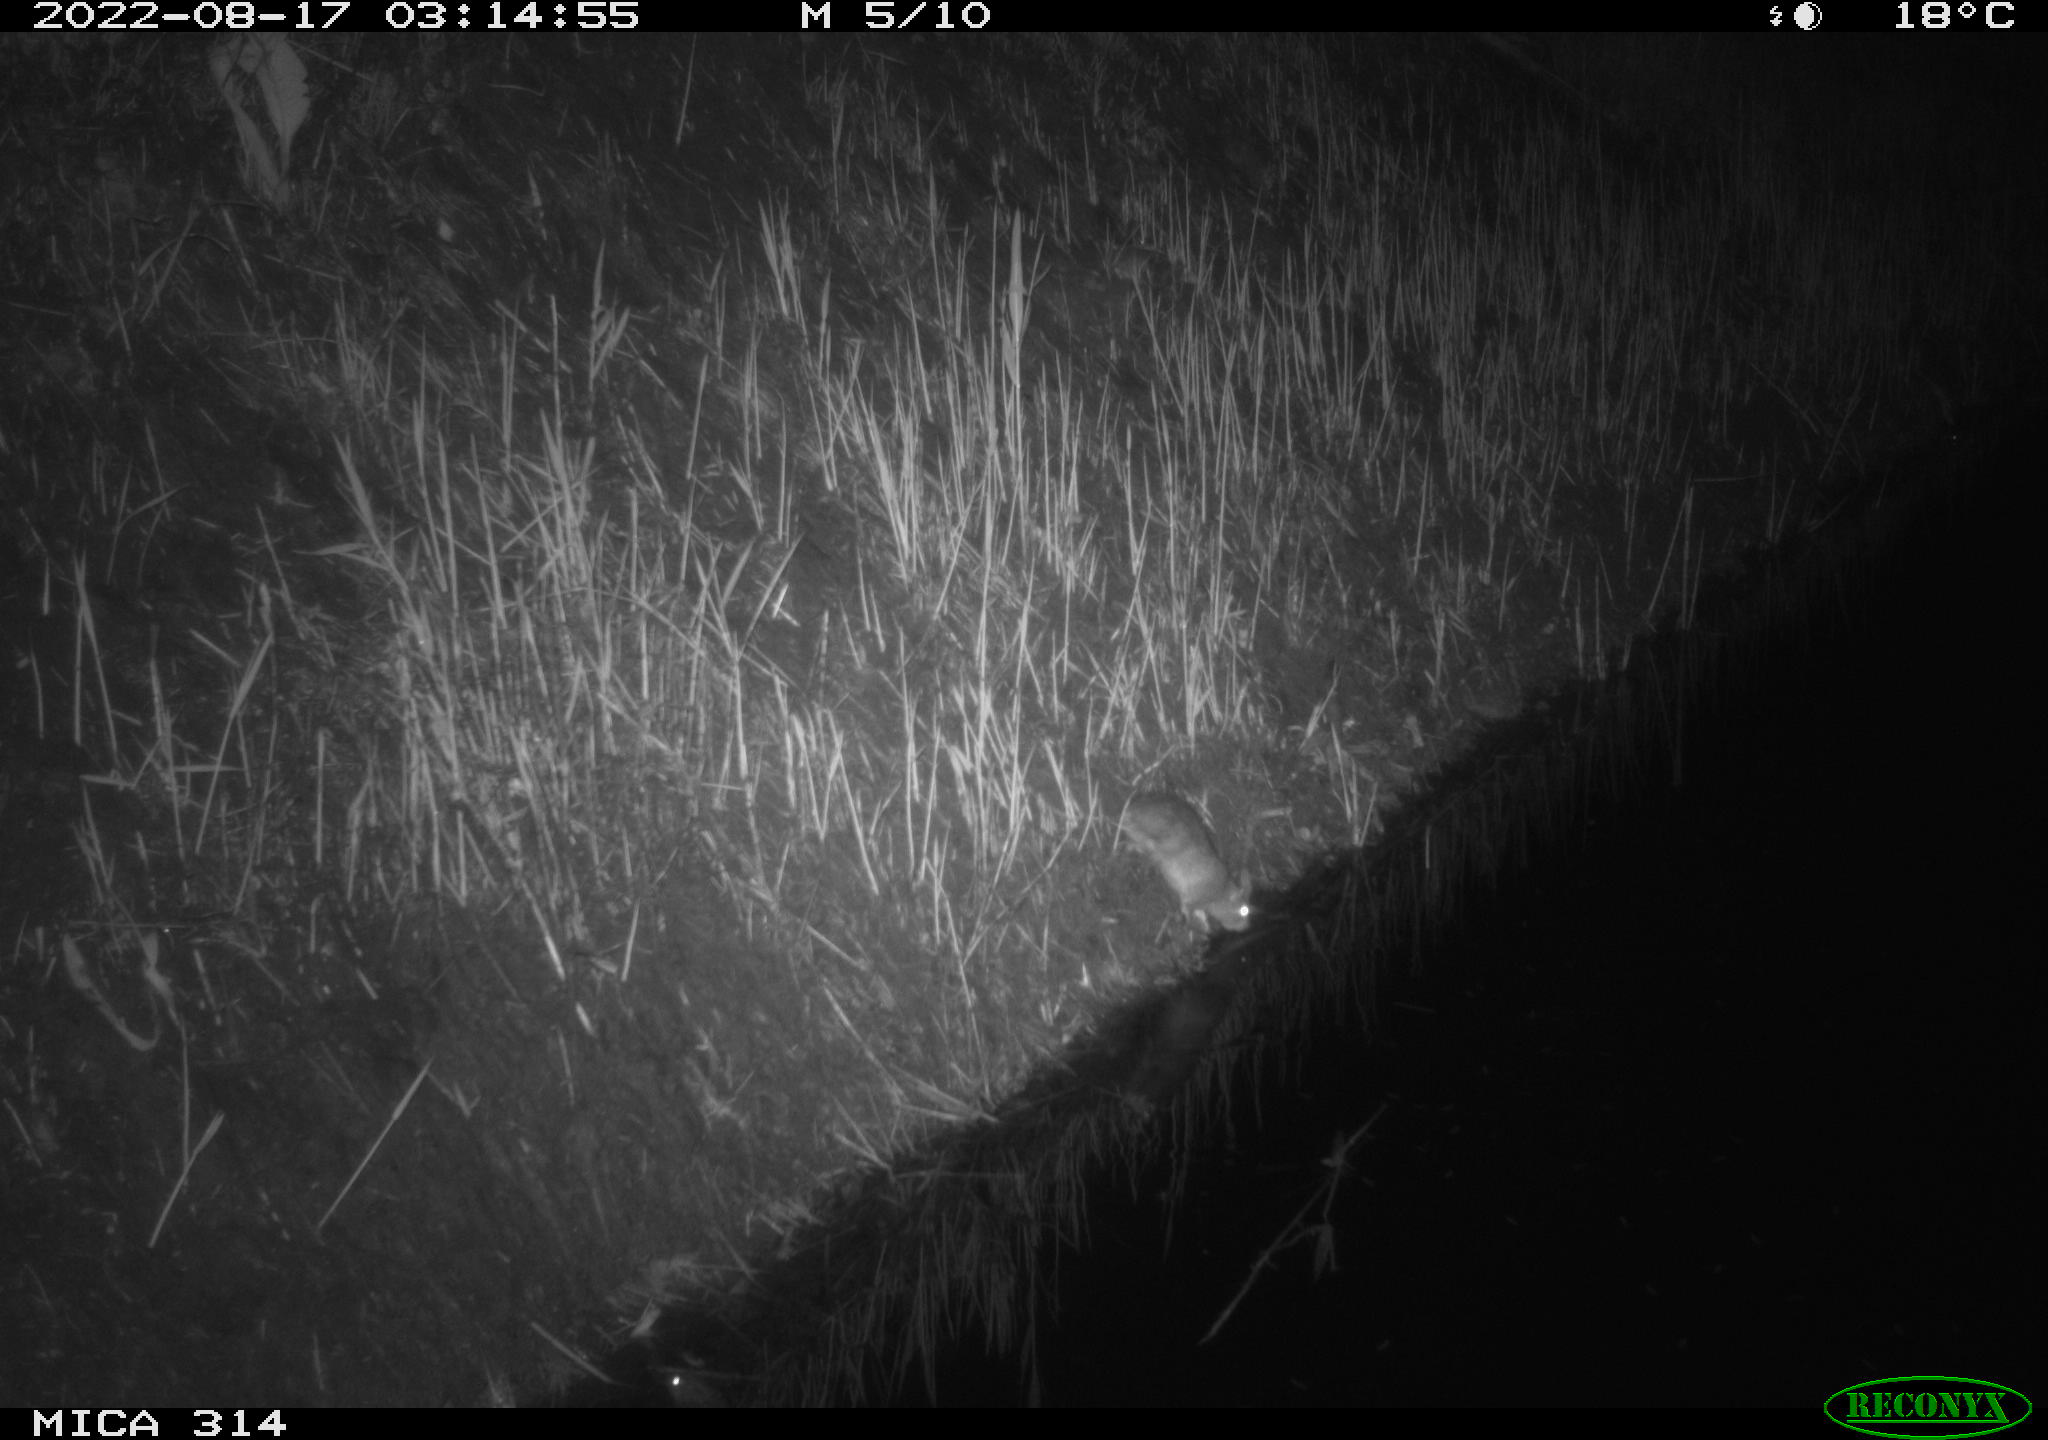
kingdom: Animalia
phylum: Chordata
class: Mammalia
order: Rodentia
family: Muridae
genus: Rattus
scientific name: Rattus norvegicus
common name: Brown rat
